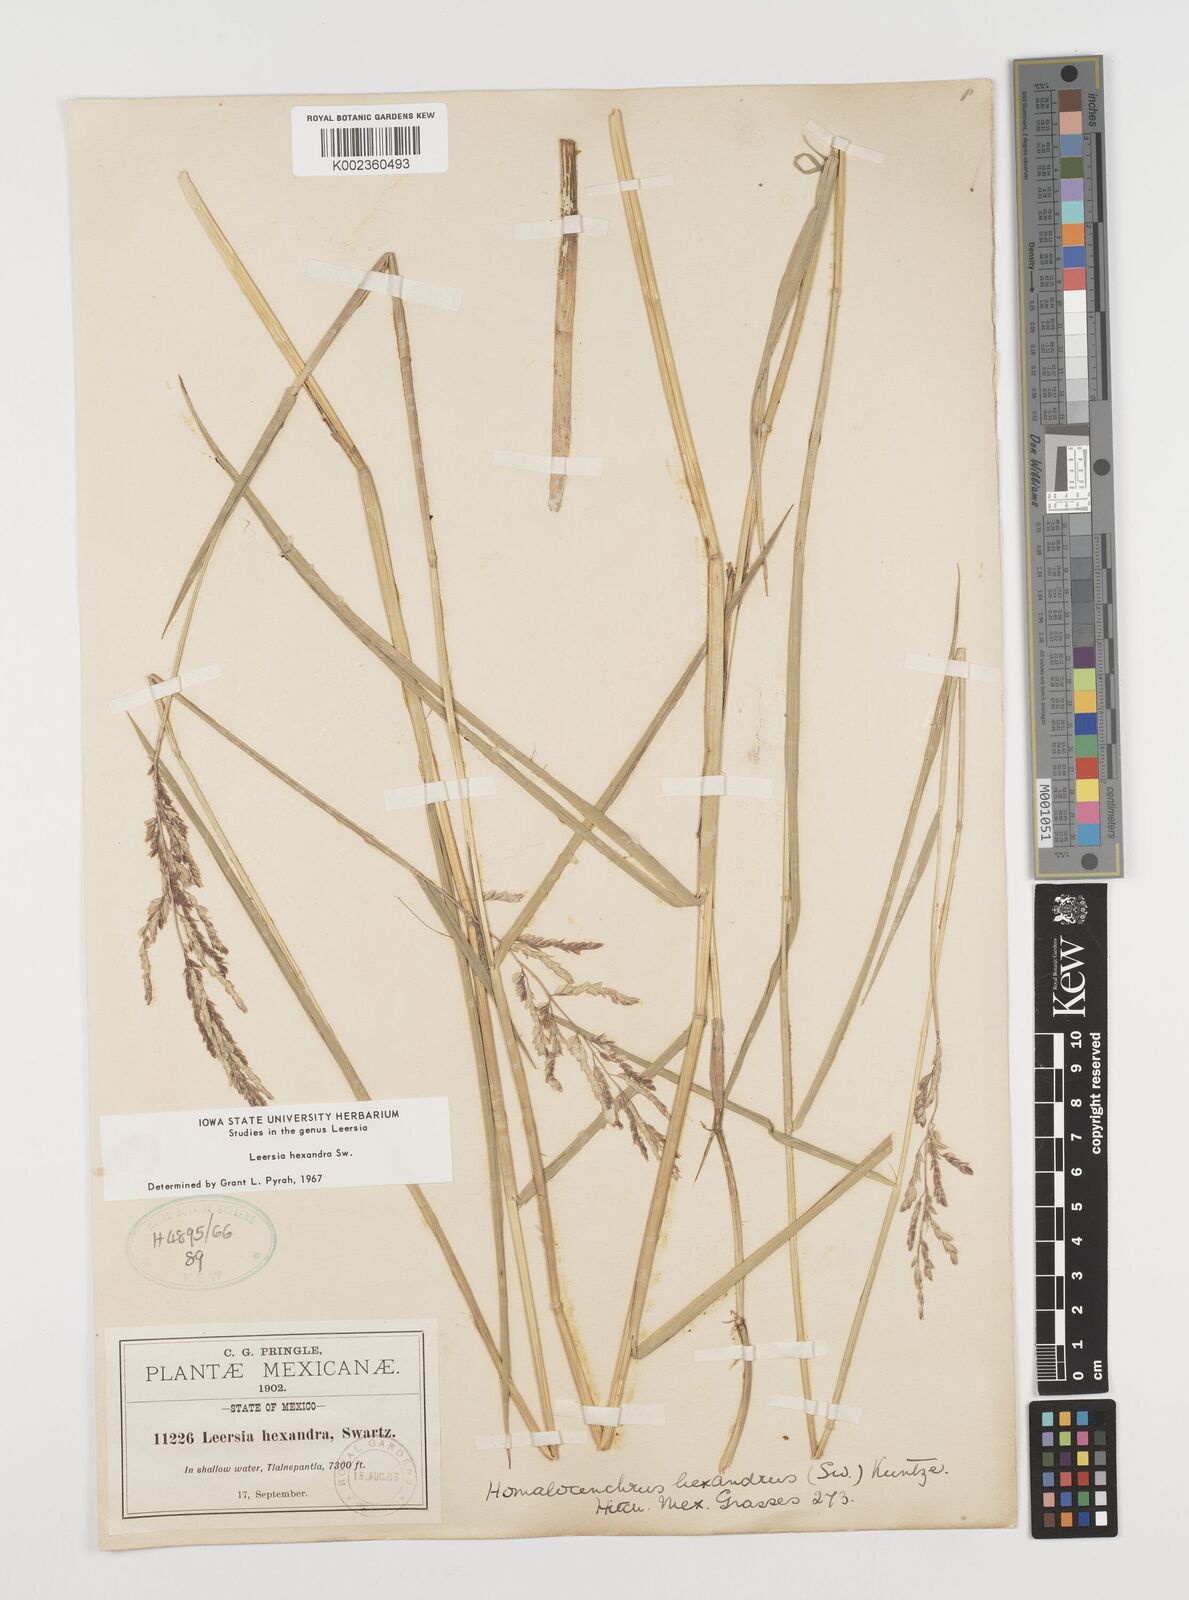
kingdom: Plantae
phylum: Tracheophyta
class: Liliopsida
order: Poales
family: Poaceae
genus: Leersia
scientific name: Leersia hexandra
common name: Southern cut grass
